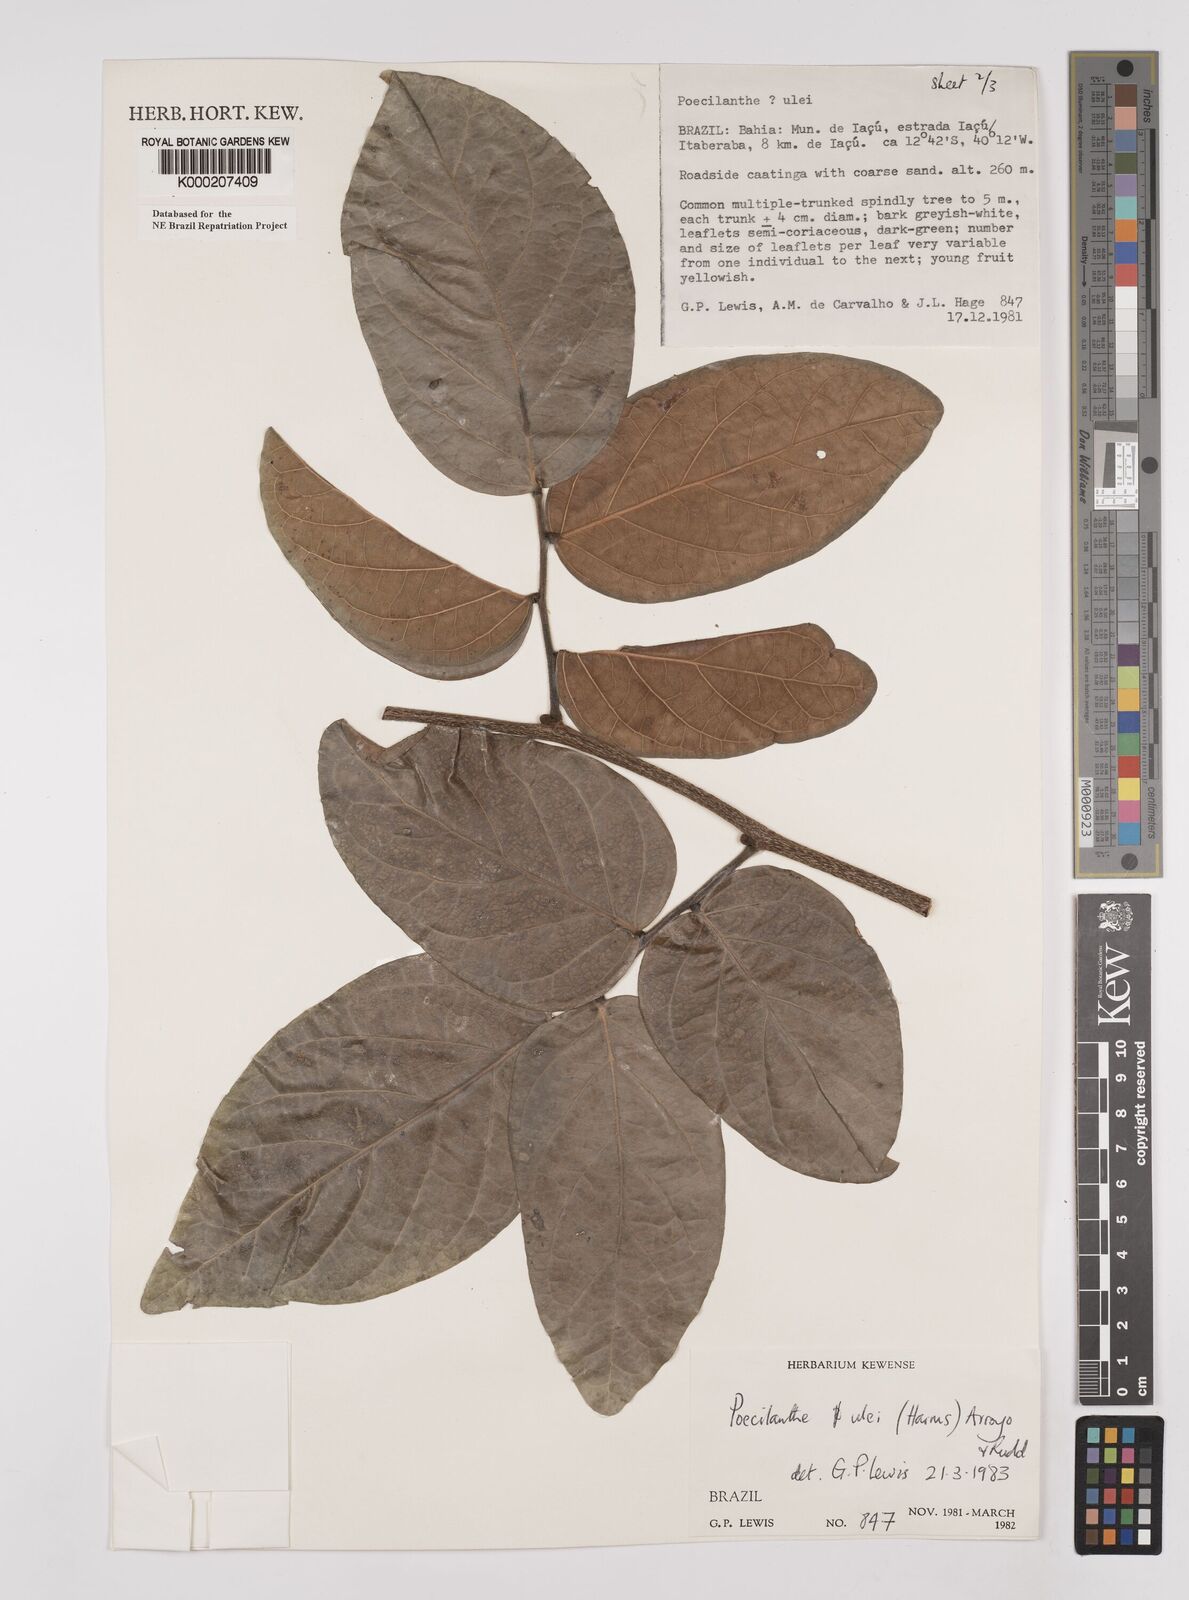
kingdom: Plantae
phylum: Tracheophyta
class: Magnoliopsida
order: Fabales
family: Fabaceae
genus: Poecilanthe
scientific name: Poecilanthe ulei
